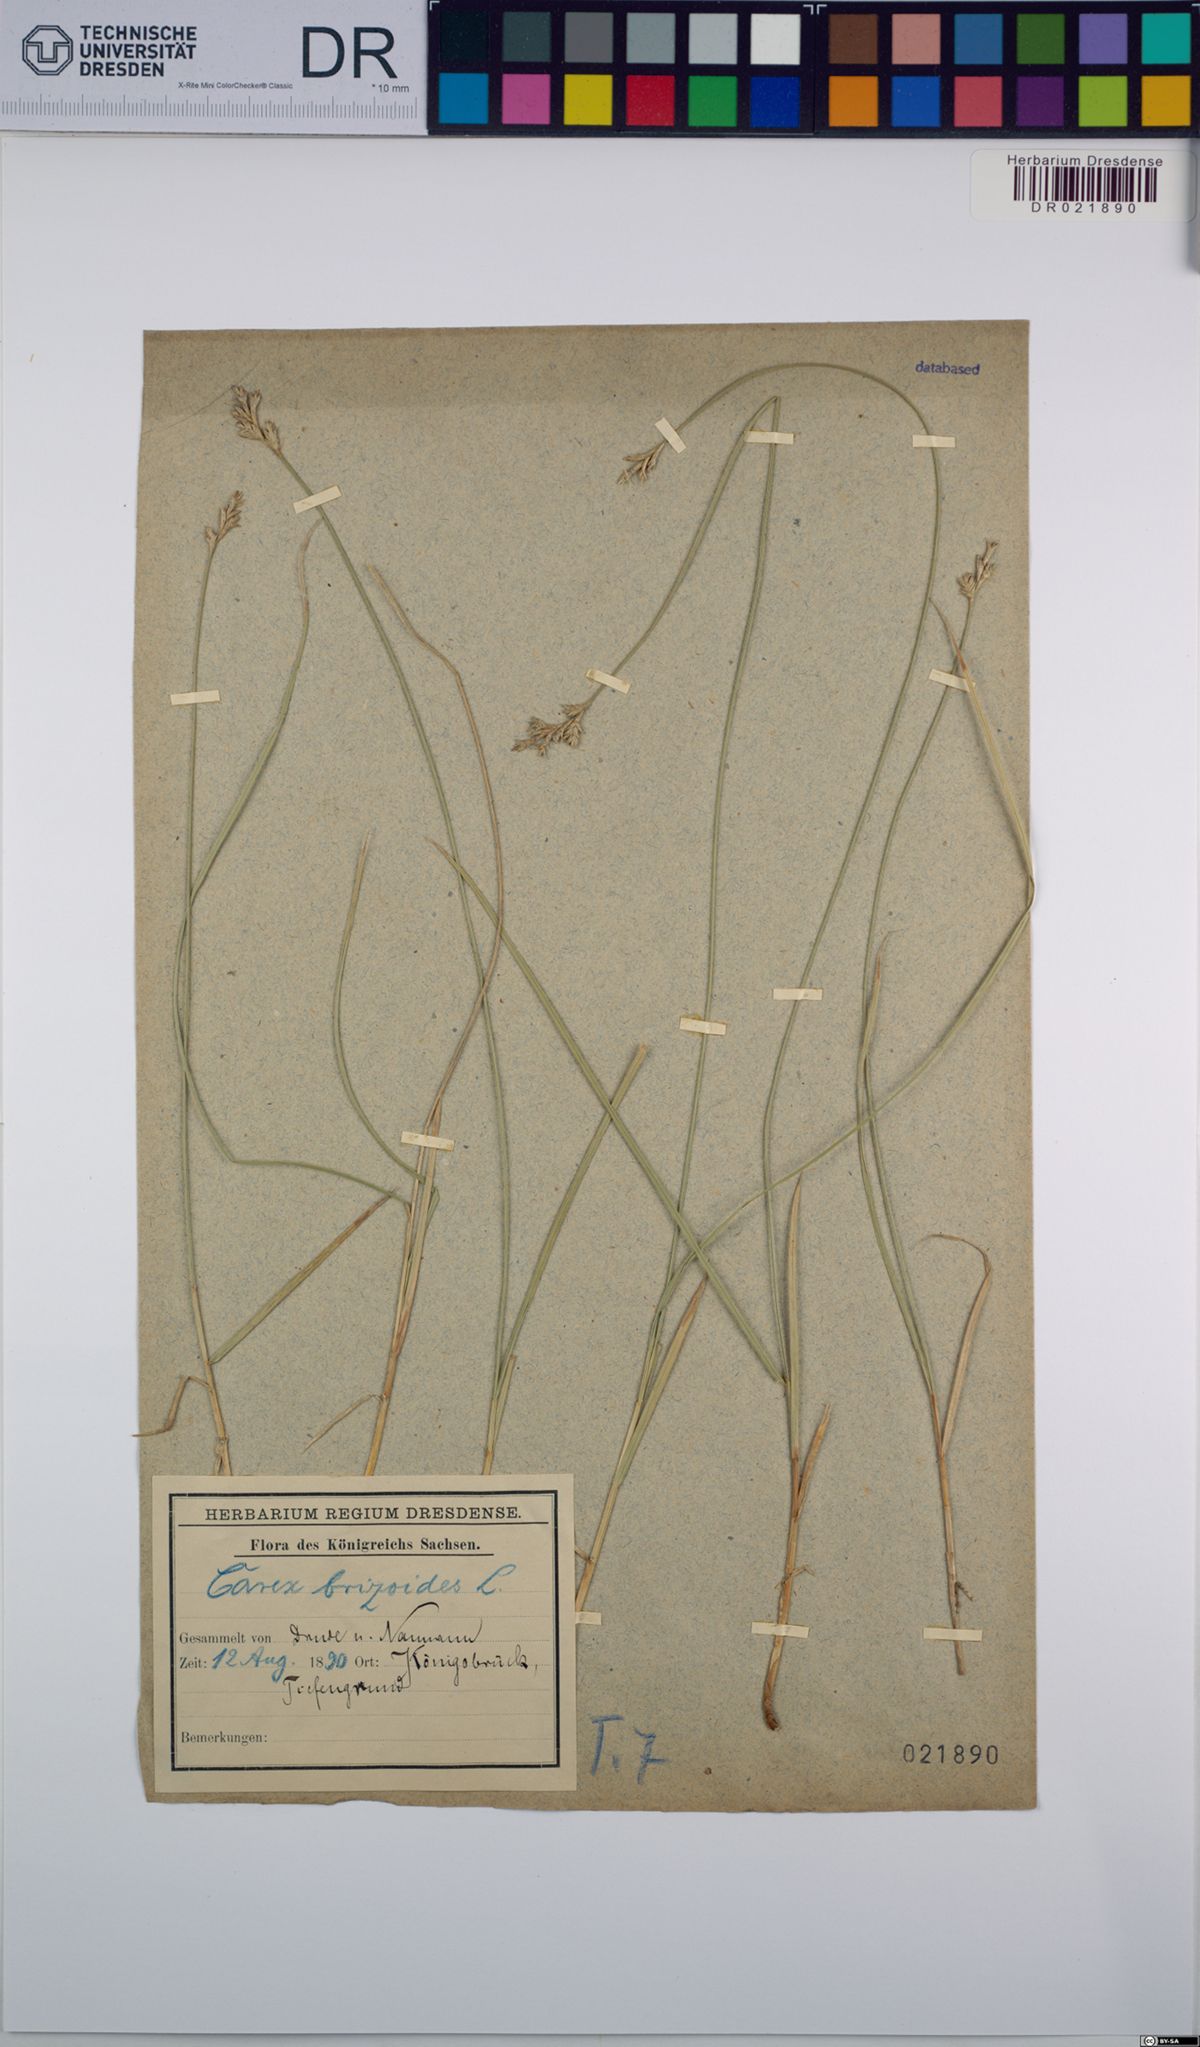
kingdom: Plantae
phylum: Tracheophyta
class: Liliopsida
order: Poales
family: Cyperaceae
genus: Carex
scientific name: Carex brizoides
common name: Quaking-grass sedge
